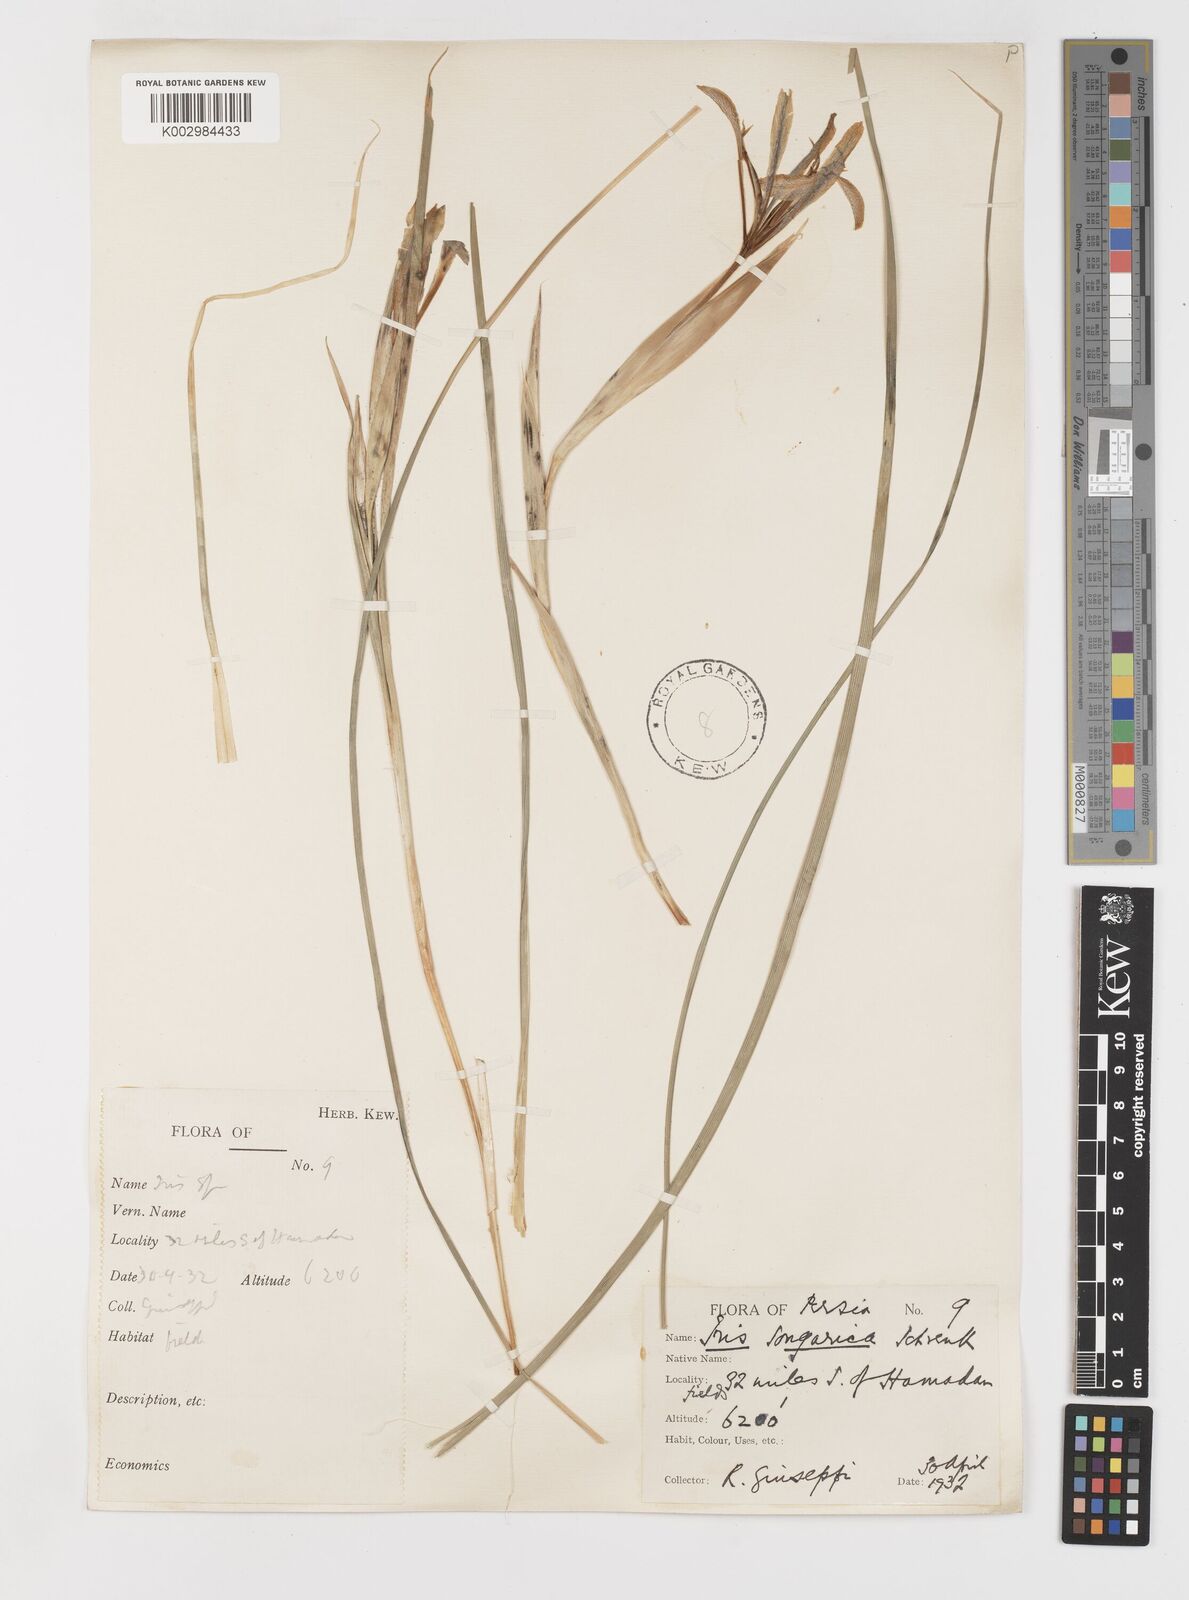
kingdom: Plantae
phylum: Tracheophyta
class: Liliopsida
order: Asparagales
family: Iridaceae
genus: Iris
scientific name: Iris songarica
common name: Songar iris
